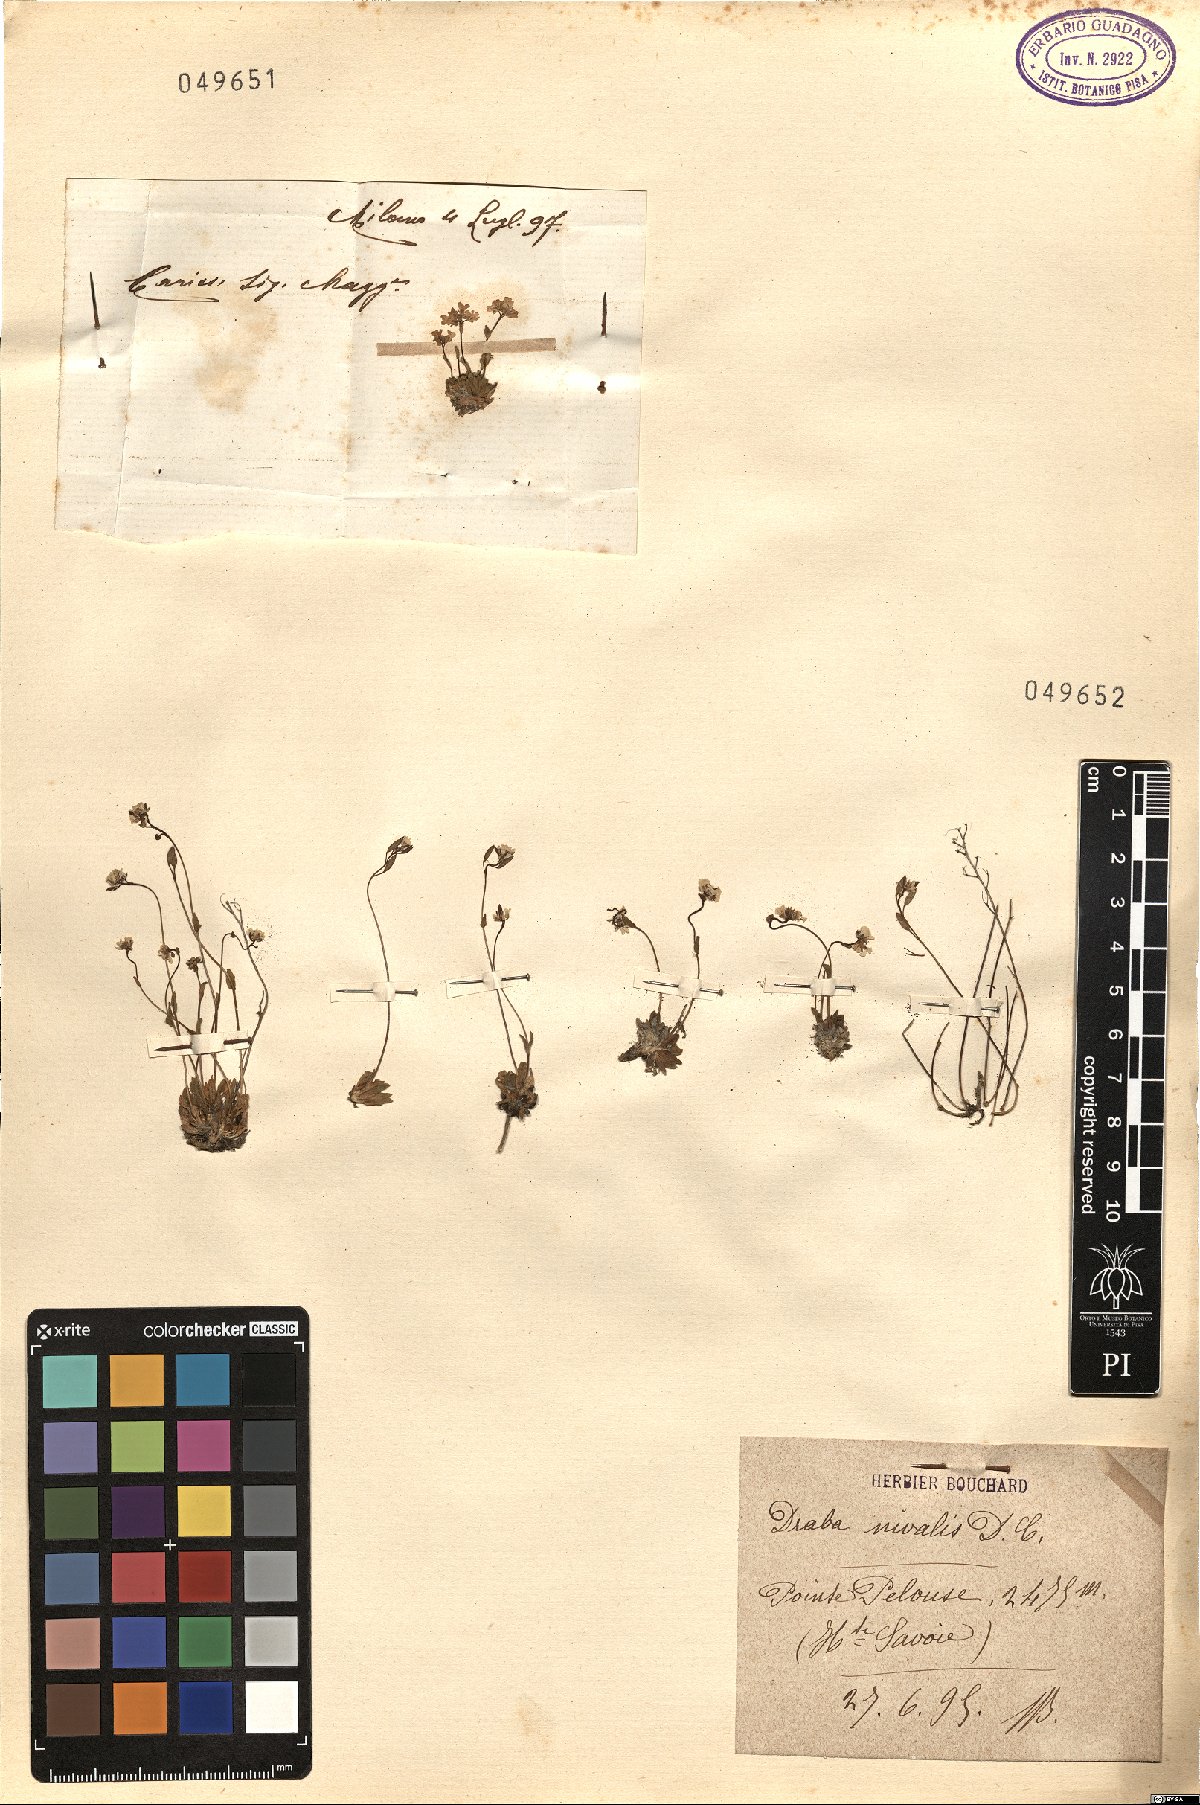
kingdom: Plantae
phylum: Tracheophyta
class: Magnoliopsida
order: Brassicales
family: Brassicaceae
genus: Draba
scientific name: Draba nivalis
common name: Snow draba
